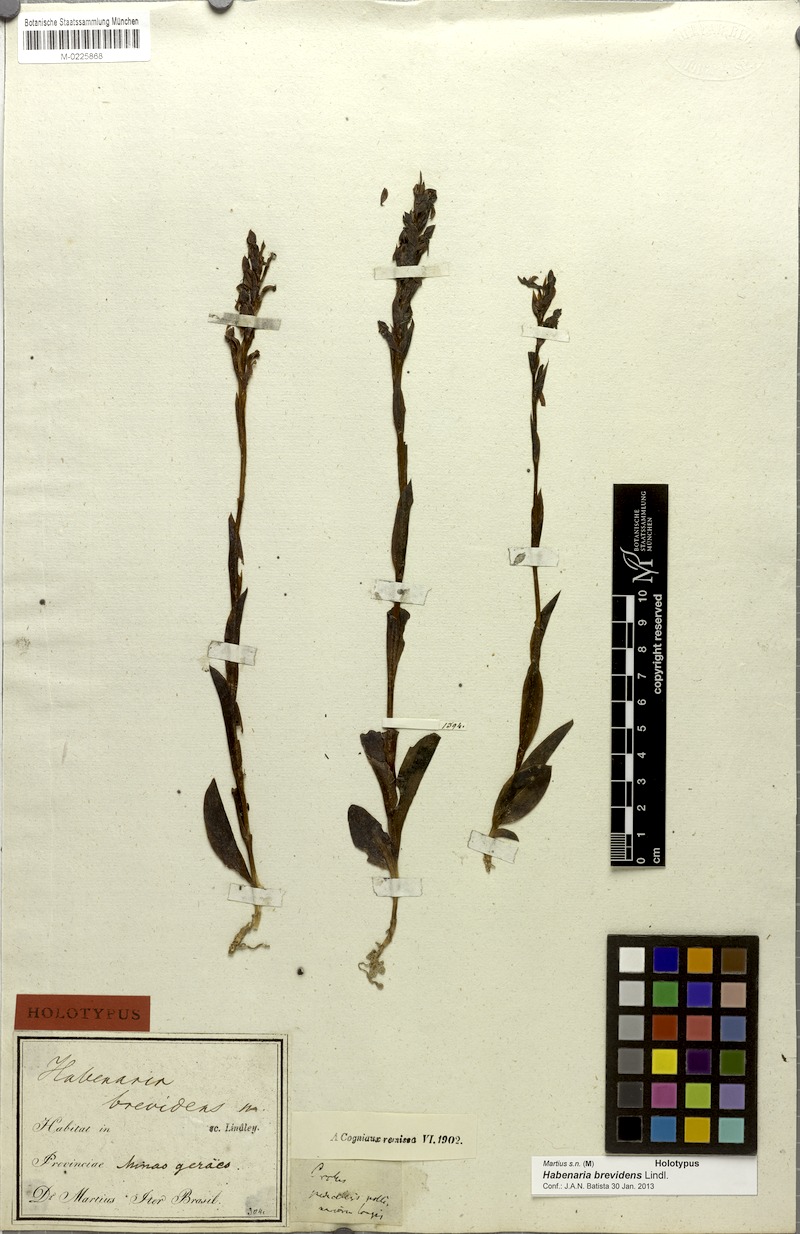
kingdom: Plantae
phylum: Tracheophyta
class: Liliopsida
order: Asparagales
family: Orchidaceae
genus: Habenaria
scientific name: Habenaria brevidens
